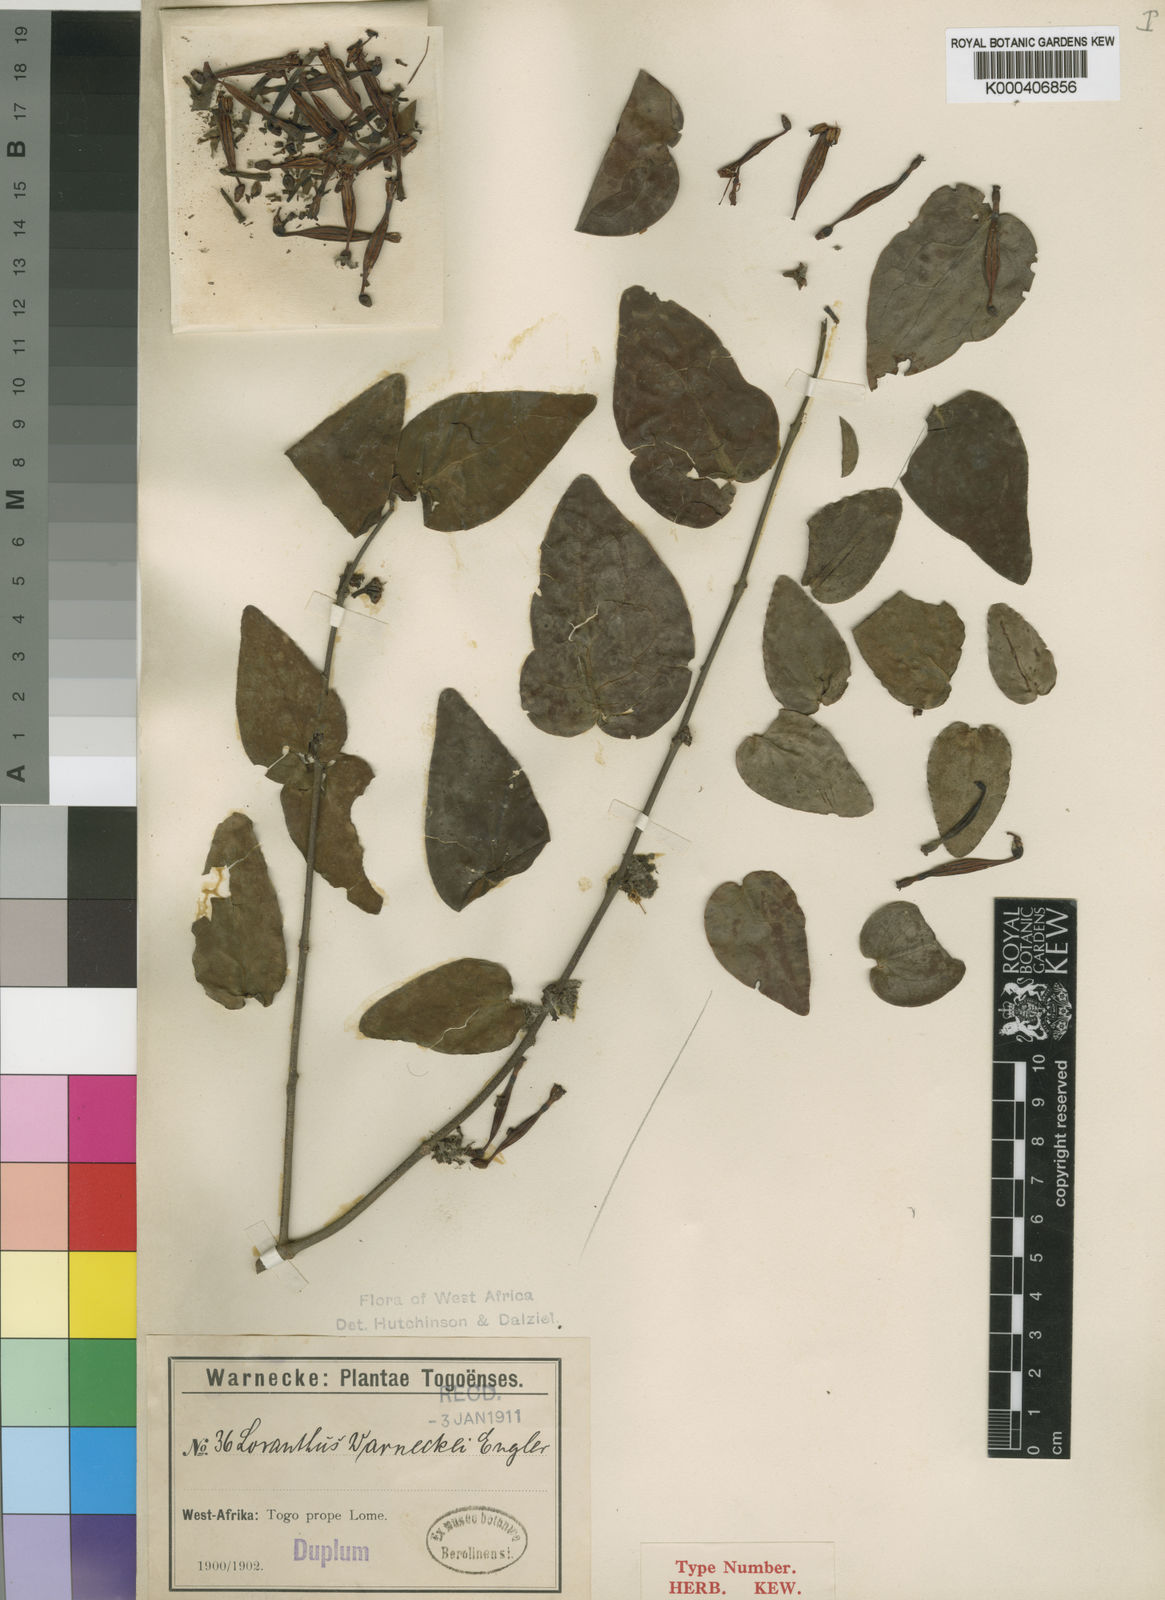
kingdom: Plantae
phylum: Tracheophyta
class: Magnoliopsida
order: Santalales
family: Loranthaceae
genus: Tapinanthus
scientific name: Tapinanthus sessilifolius
